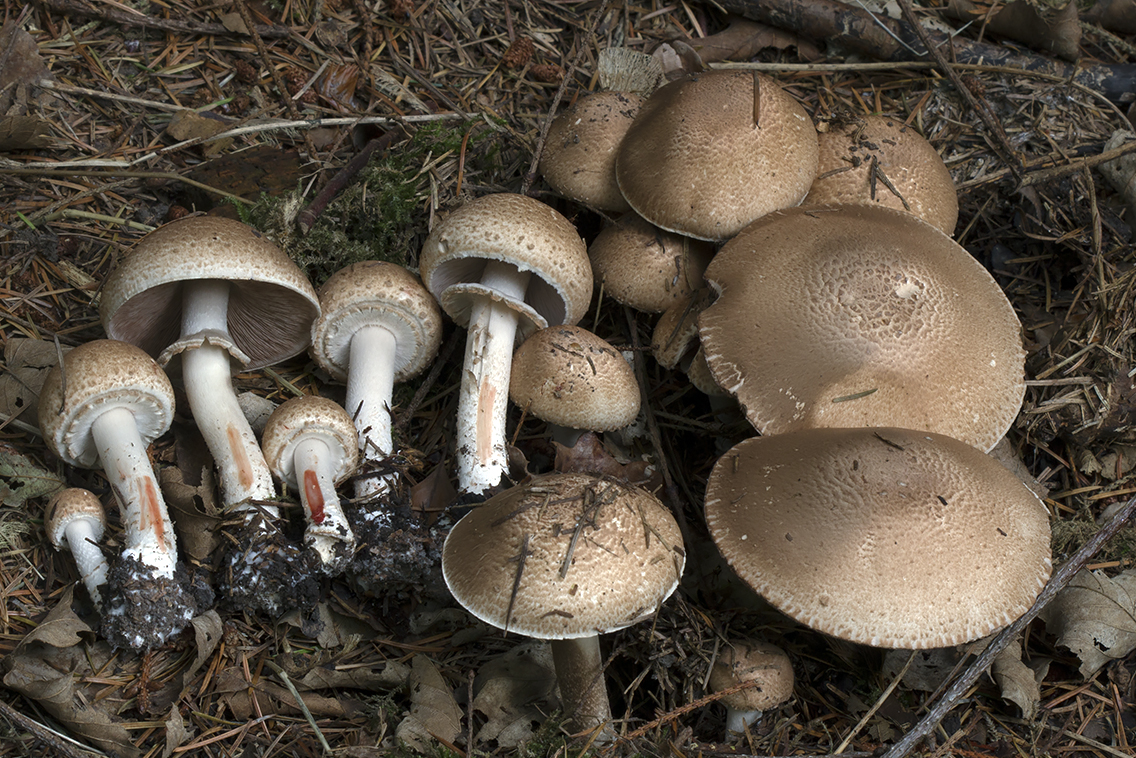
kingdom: Fungi
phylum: Basidiomycota
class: Agaricomycetes
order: Agaricales
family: Agaricaceae
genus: Agaricus
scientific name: Agaricus langei
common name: stor blod-champignon
